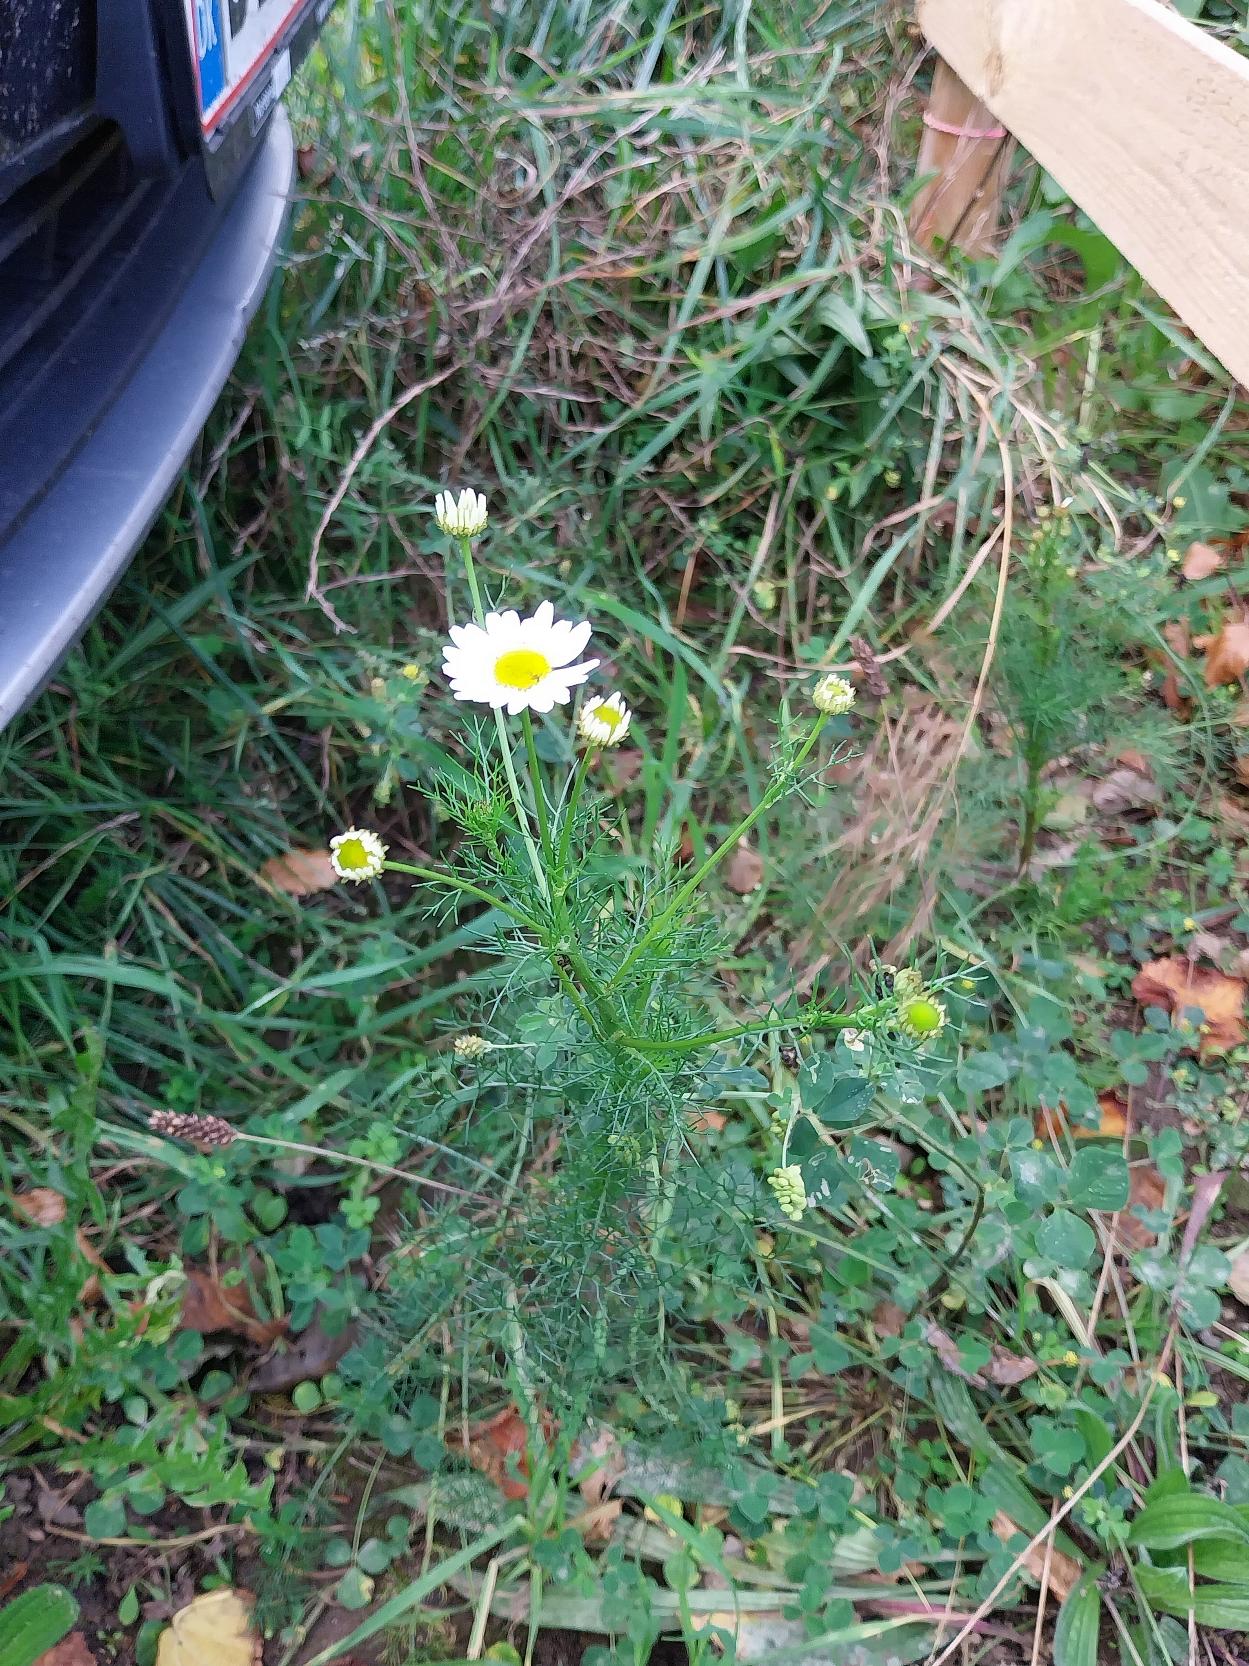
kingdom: Plantae
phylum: Tracheophyta
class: Magnoliopsida
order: Asterales
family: Asteraceae
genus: Tripleurospermum
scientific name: Tripleurospermum inodorum
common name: Lugtløs kamille
